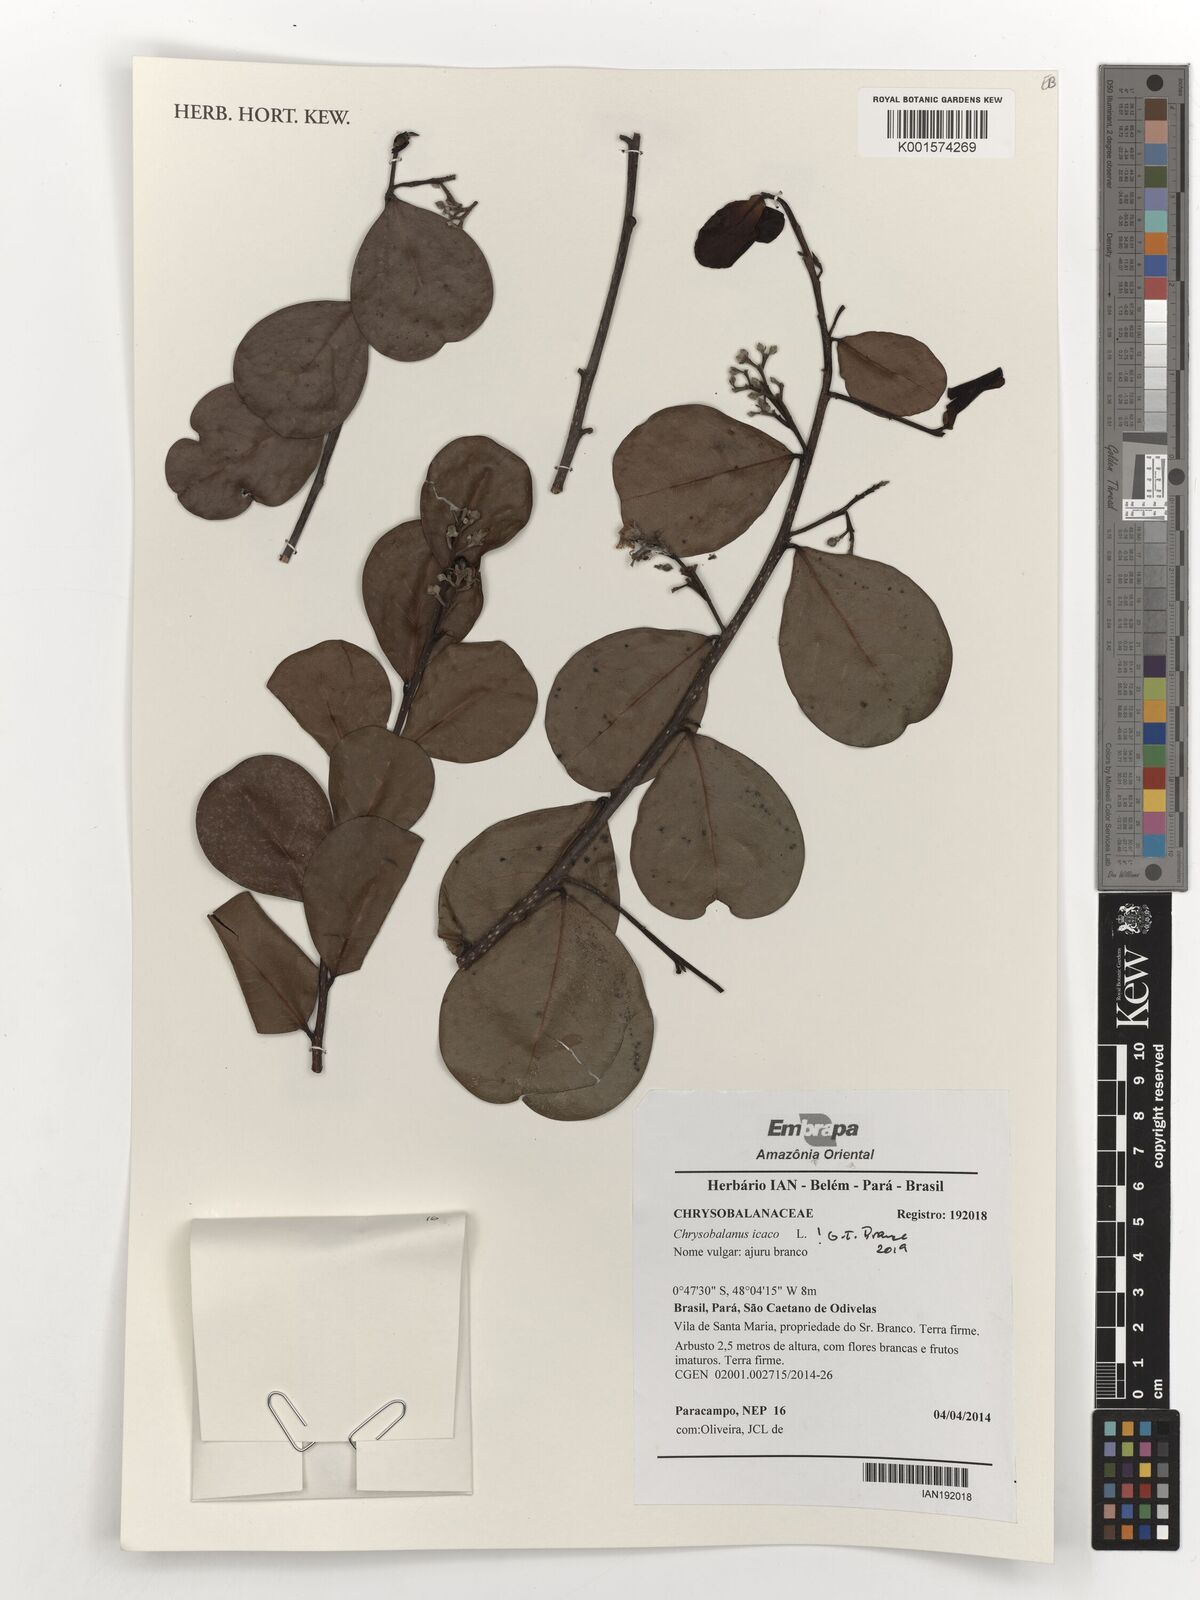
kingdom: Plantae
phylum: Tracheophyta
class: Magnoliopsida
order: Malpighiales
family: Chrysobalanaceae
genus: Chrysobalanus
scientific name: Chrysobalanus icaco
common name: Coco plum
